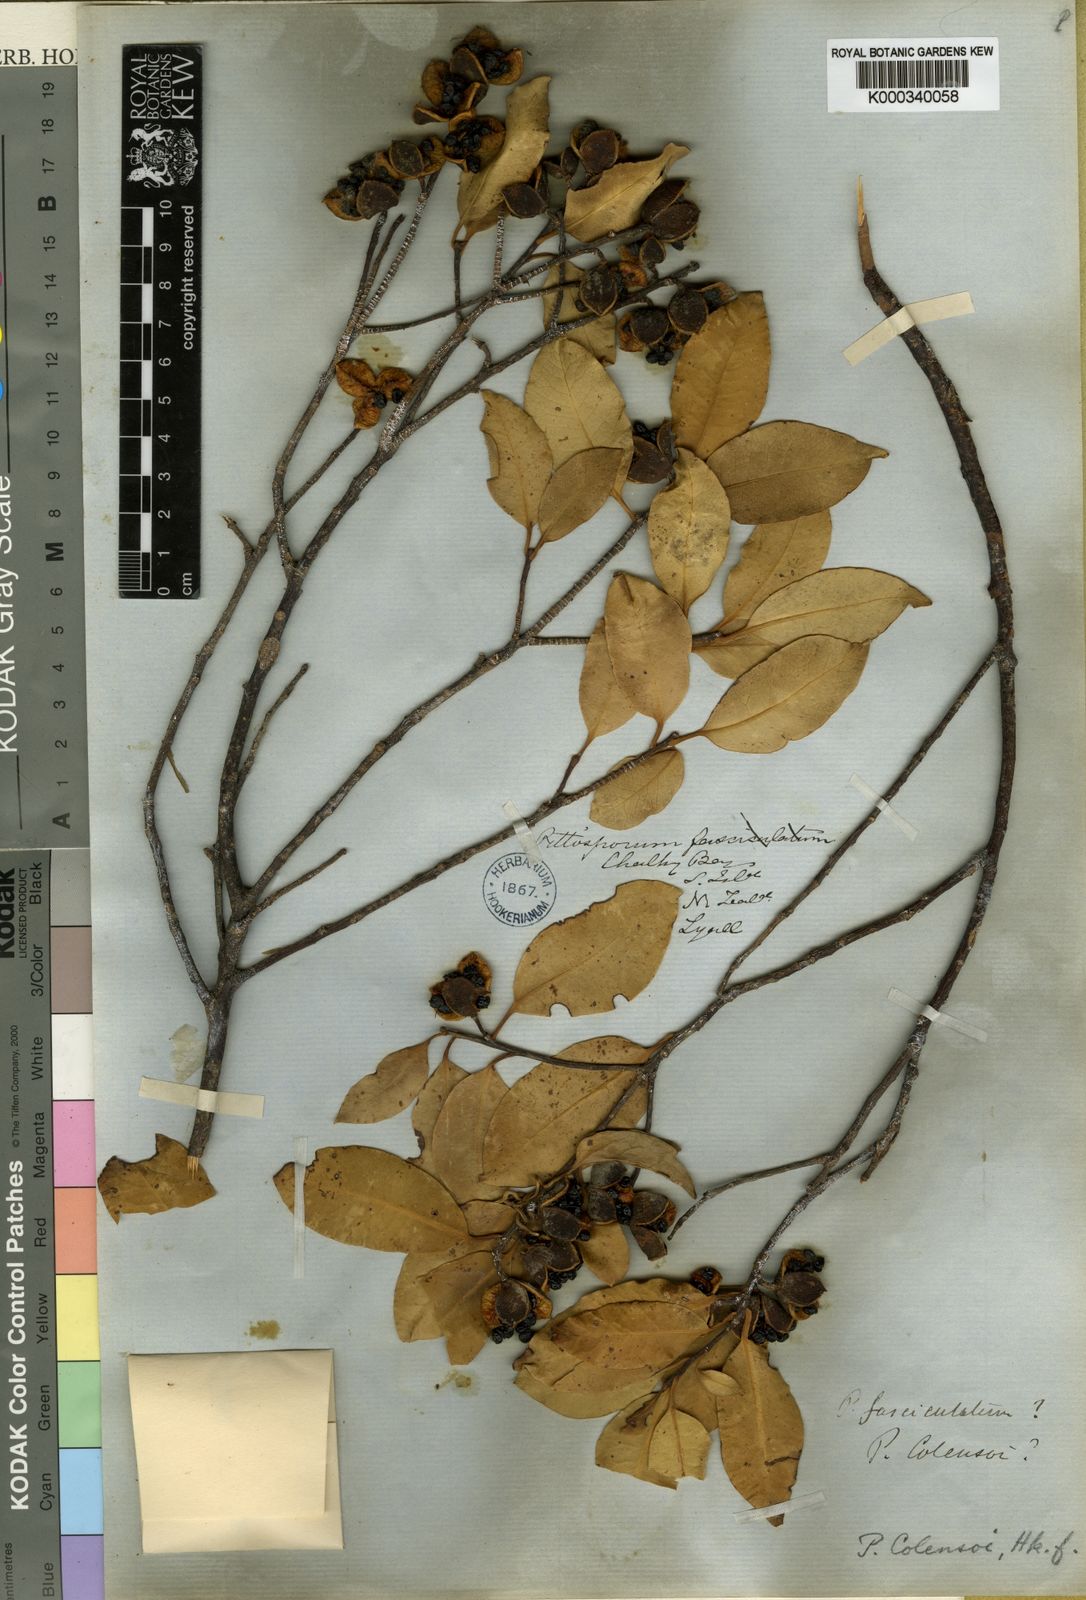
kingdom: Plantae
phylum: Tracheophyta
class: Magnoliopsida
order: Apiales
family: Pittosporaceae
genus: Pittosporum
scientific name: Pittosporum colensoi
